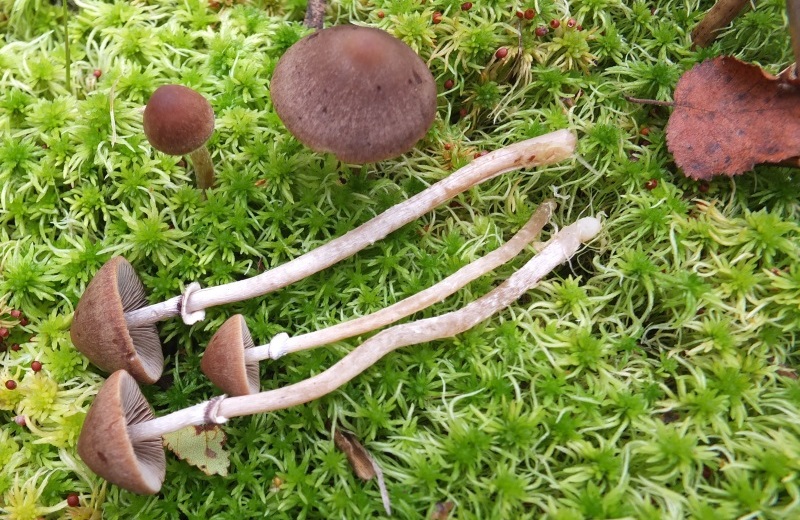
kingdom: Fungi
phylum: Basidiomycota
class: Agaricomycetes
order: Agaricales
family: Psathyrellaceae
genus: Psathyrella
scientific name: Psathyrella sphagnicola
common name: tørve-mørkhat
